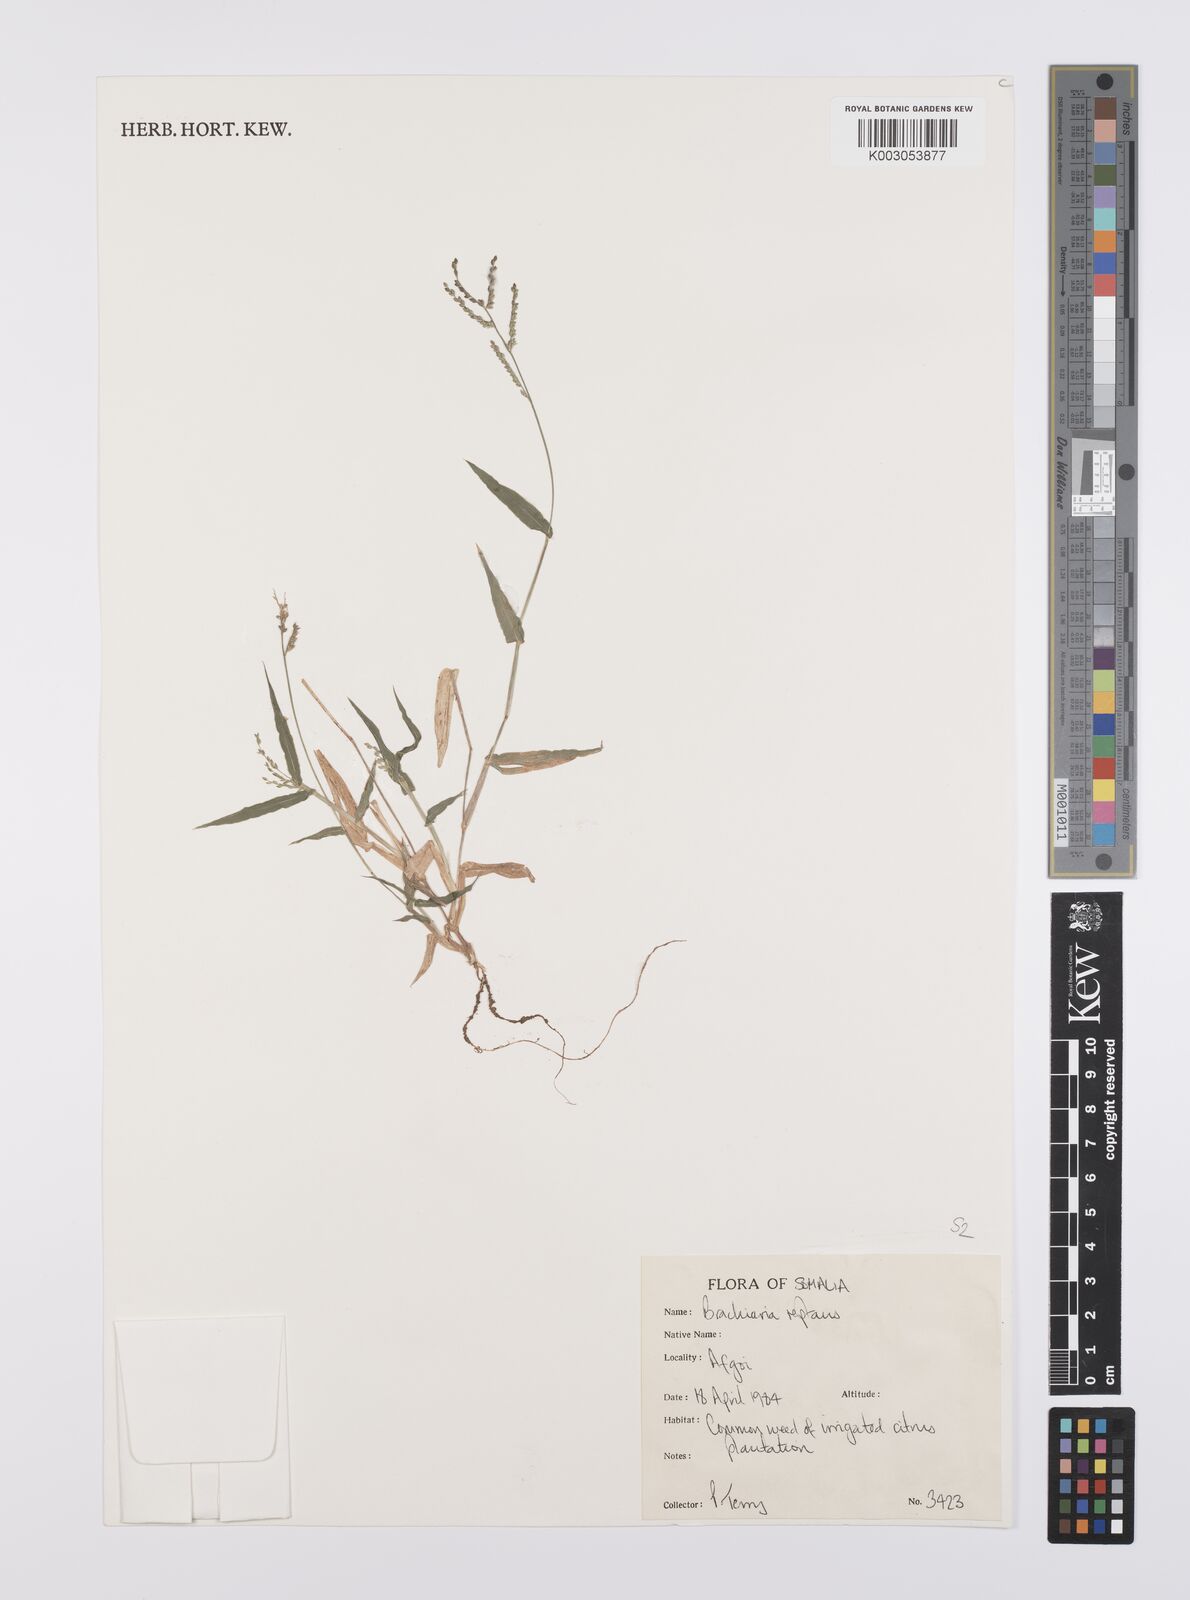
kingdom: Plantae
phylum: Tracheophyta
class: Liliopsida
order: Poales
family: Poaceae
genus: Urochloa
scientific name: Urochloa reptans
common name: Sprawling signalgrass
